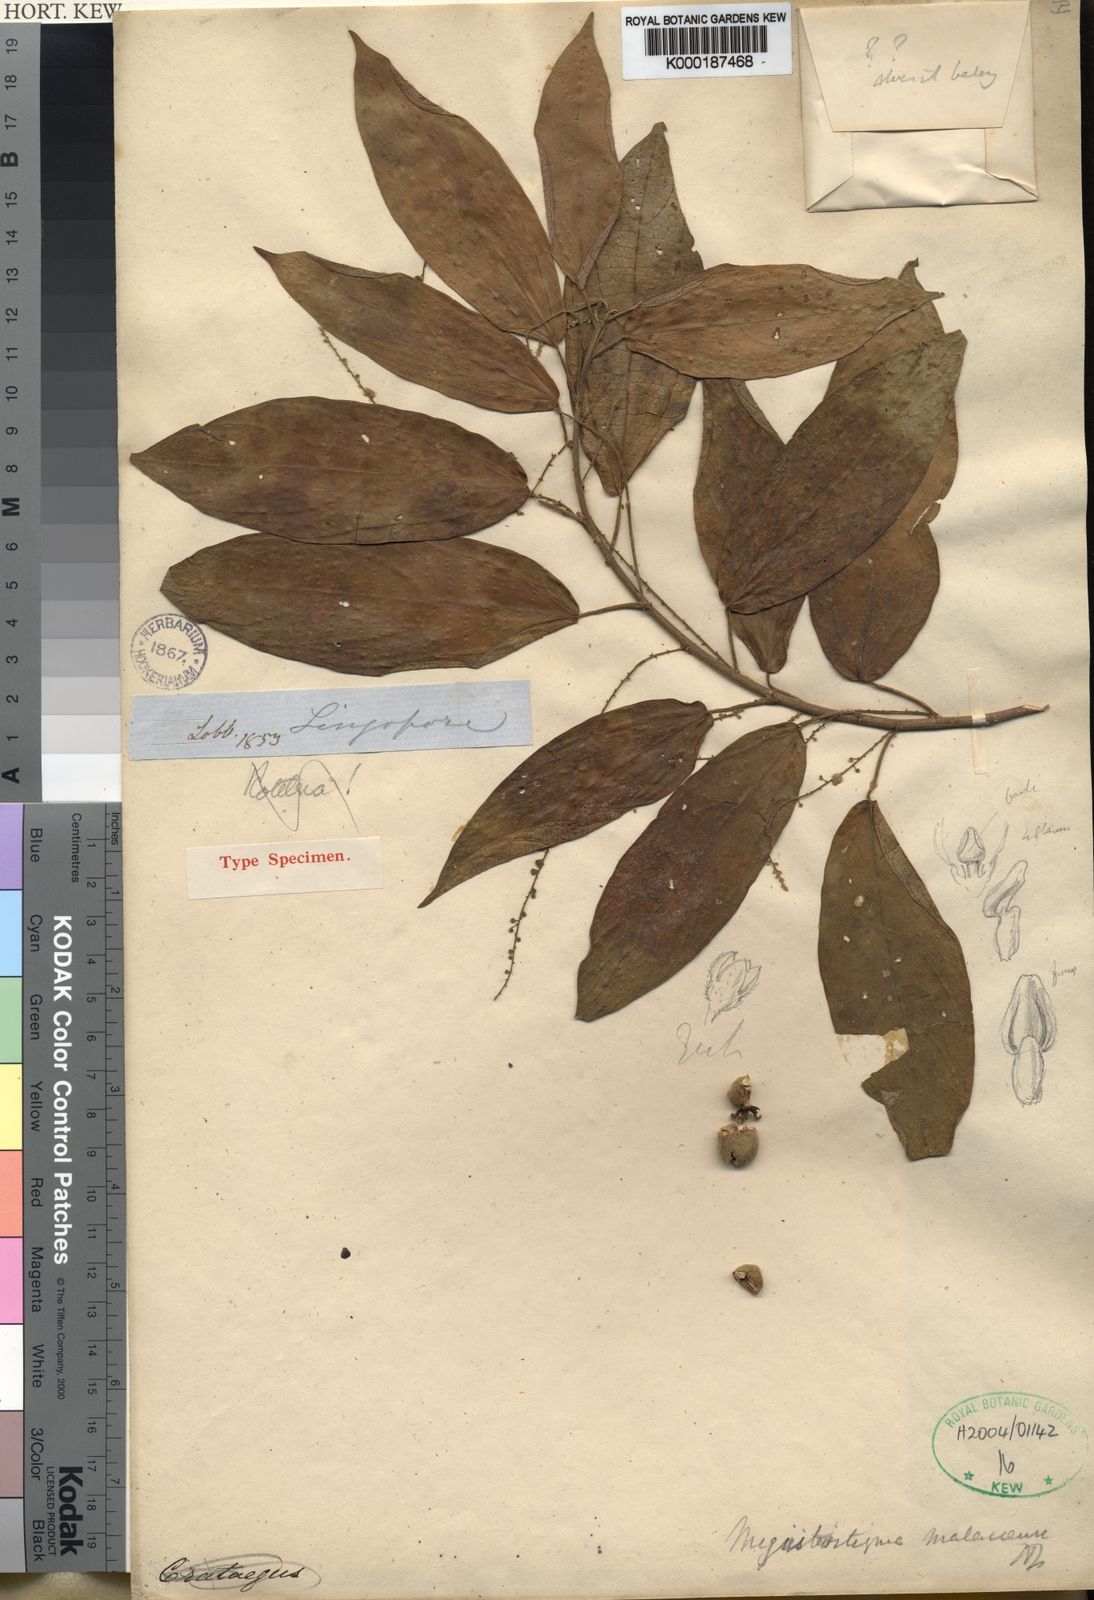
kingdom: Plantae
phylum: Tracheophyta
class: Magnoliopsida
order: Malpighiales
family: Euphorbiaceae
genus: Megistostigma
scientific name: Megistostigma glabratum
